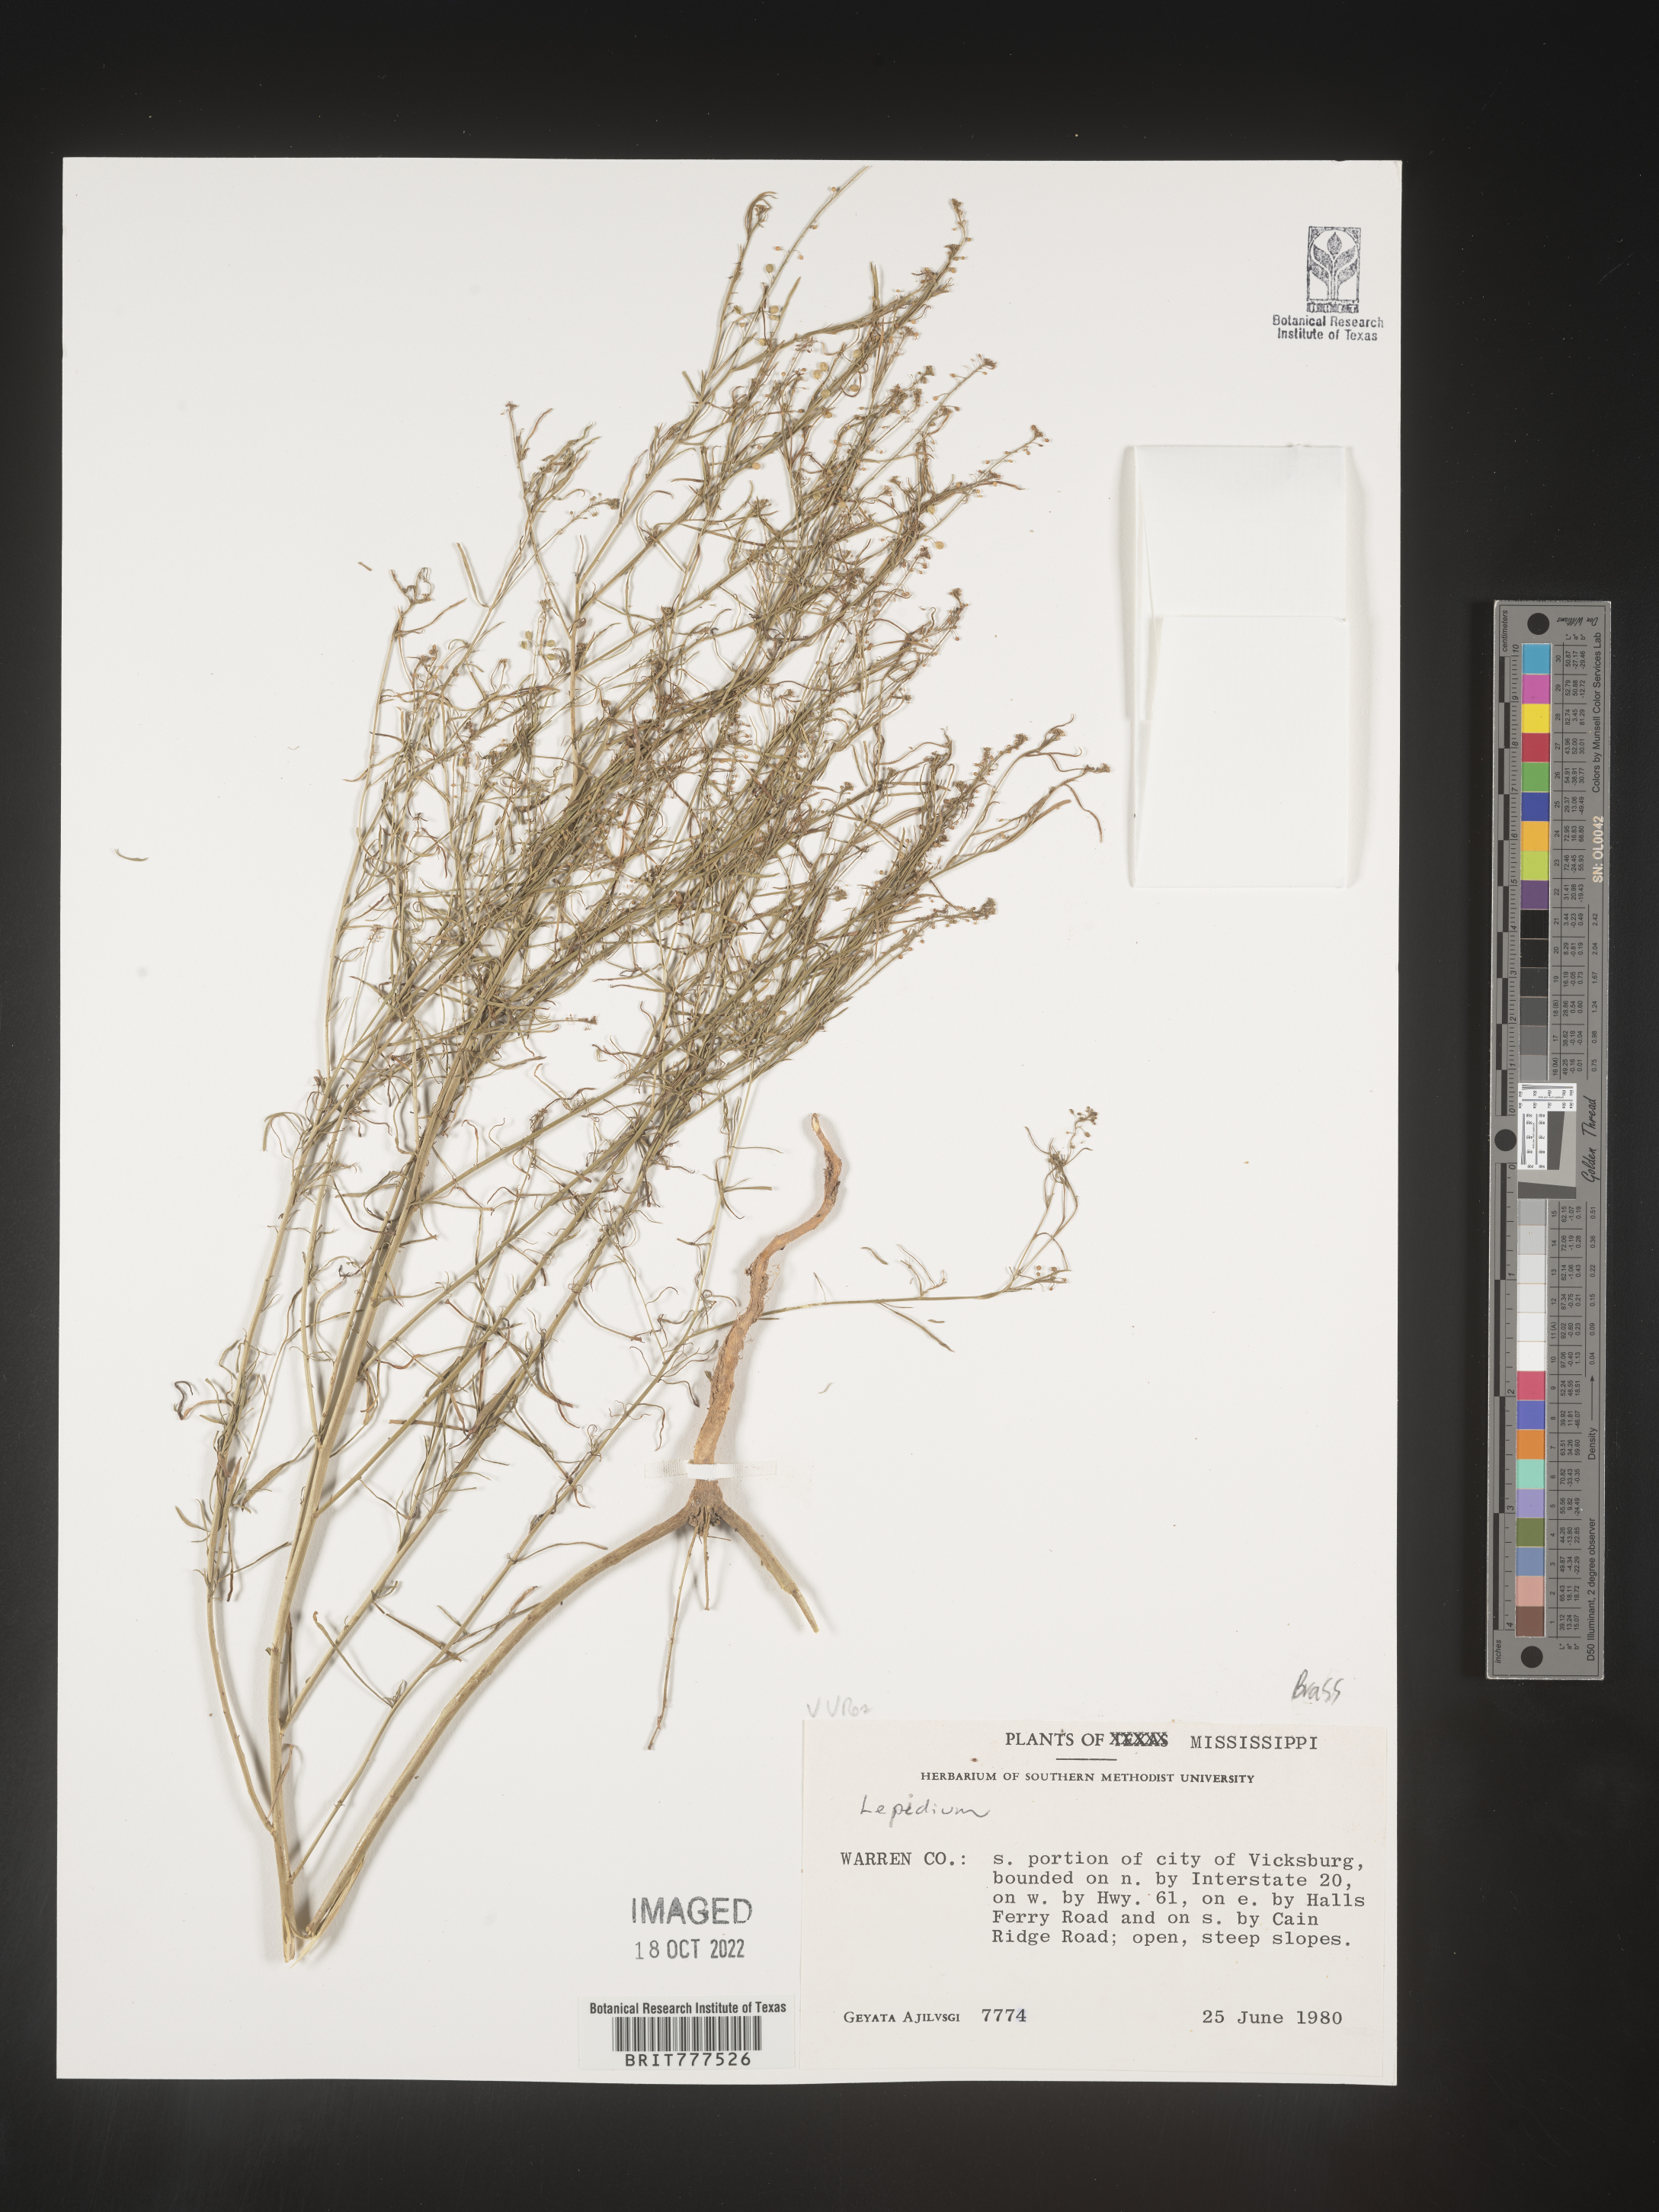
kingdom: Plantae
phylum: Tracheophyta
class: Magnoliopsida
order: Brassicales
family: Brassicaceae
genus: Lepidium
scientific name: Lepidium
